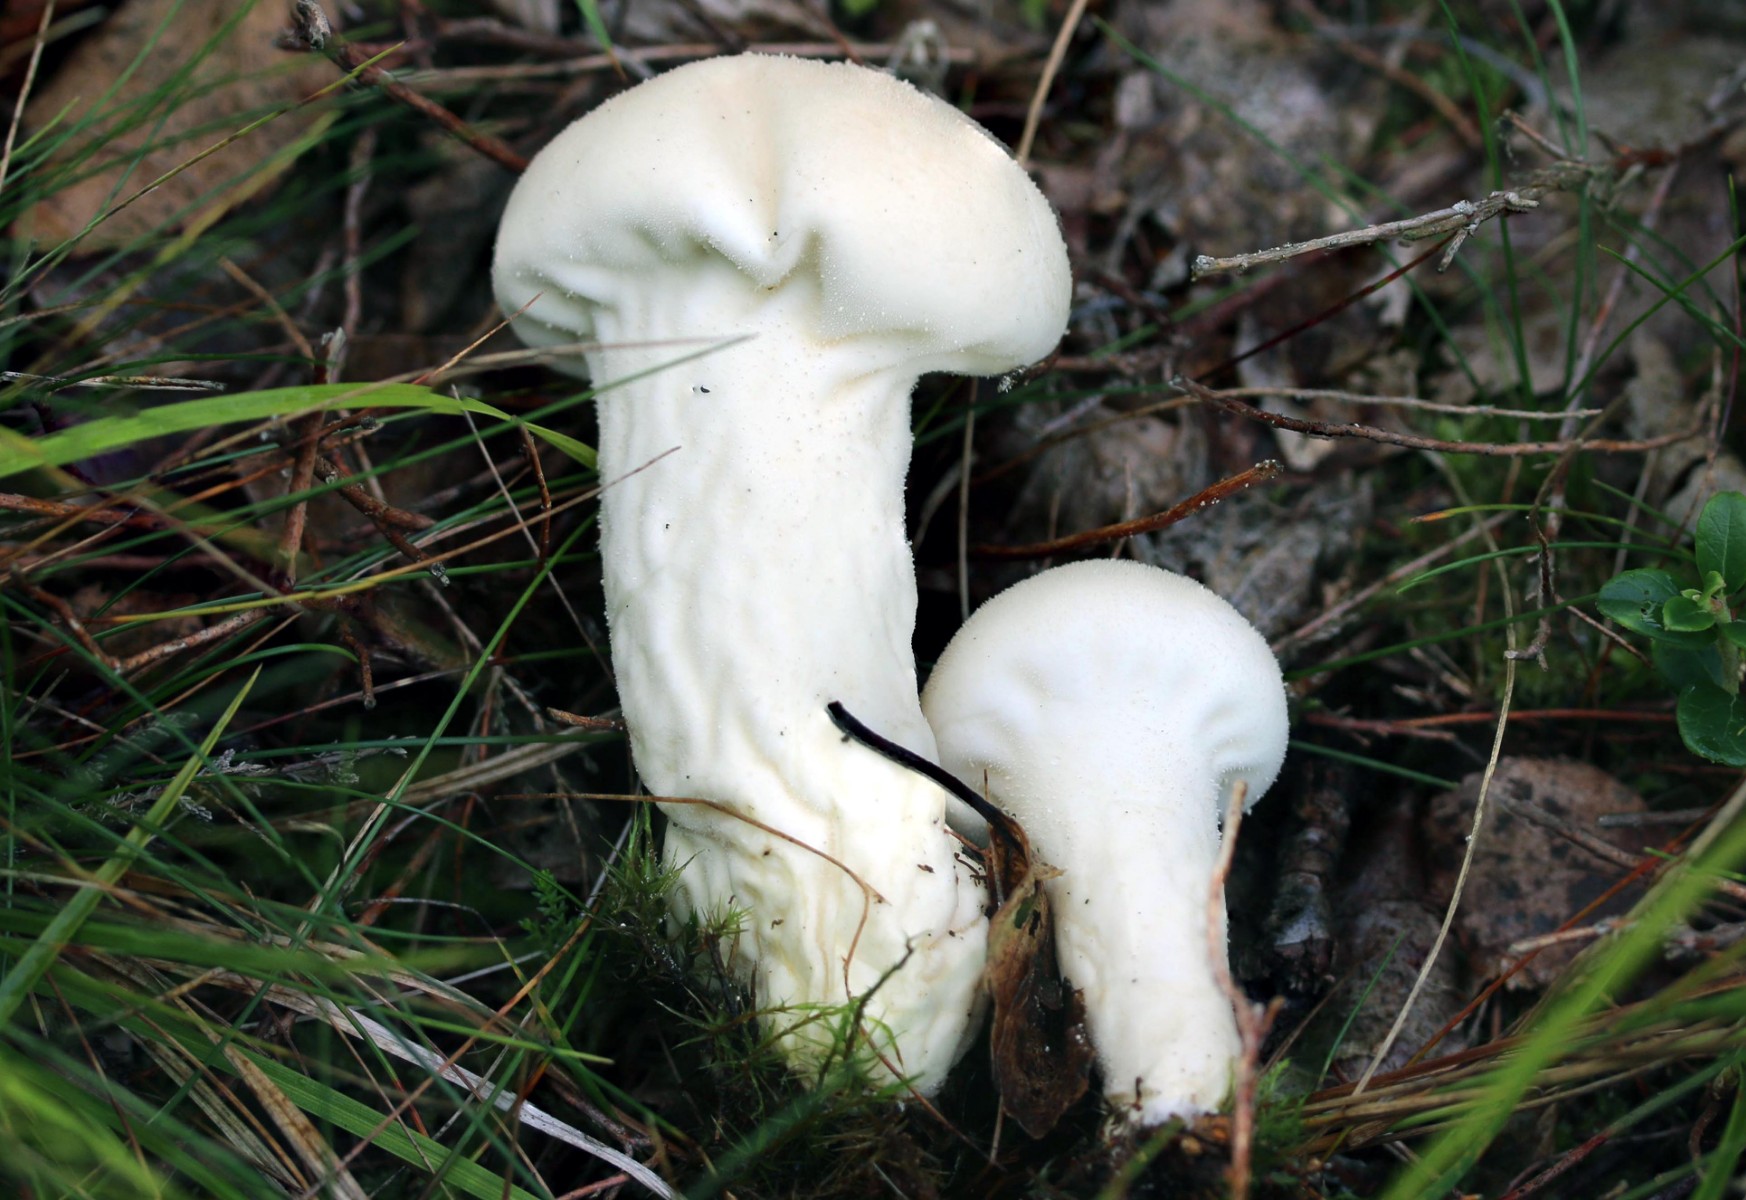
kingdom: Fungi
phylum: Basidiomycota
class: Agaricomycetes
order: Agaricales
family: Lycoperdaceae
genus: Lycoperdon
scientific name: Lycoperdon excipuliforme
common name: højstokket støvbold
